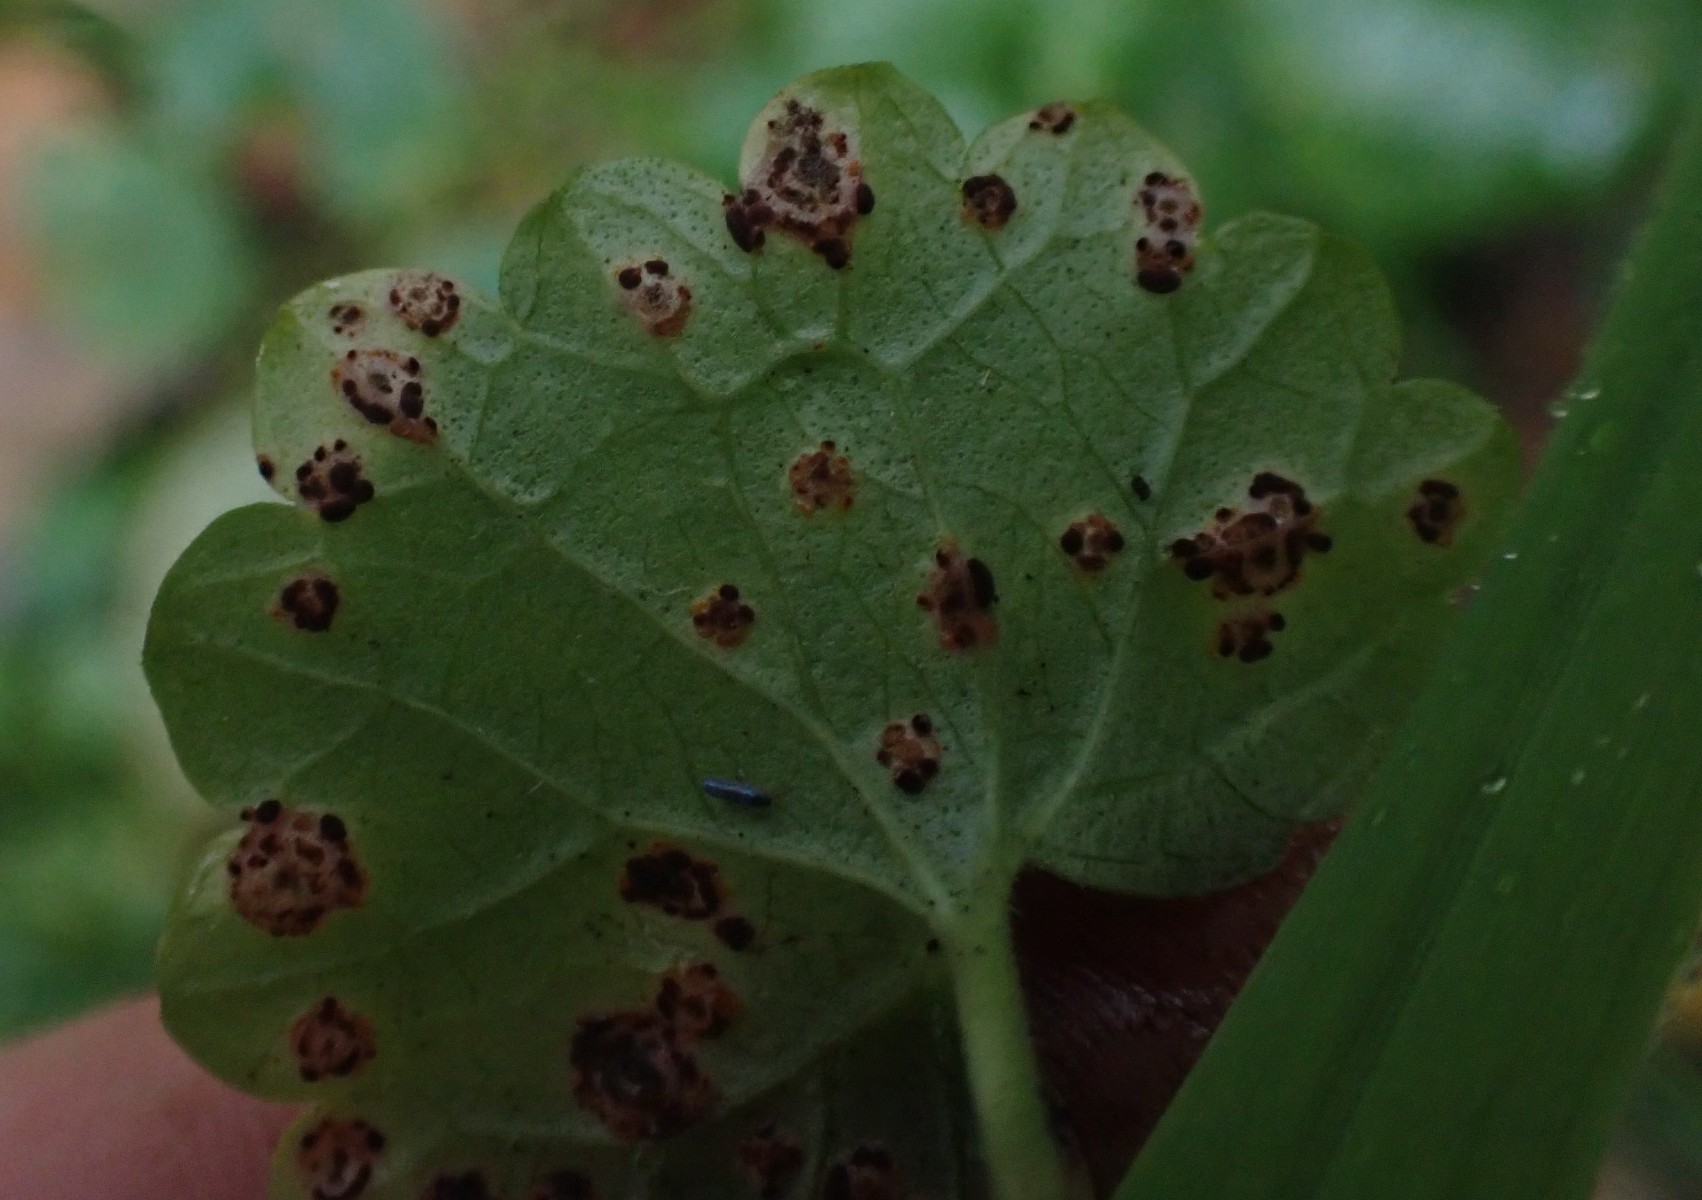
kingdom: Fungi
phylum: Basidiomycota
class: Pucciniomycetes
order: Pucciniales
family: Pucciniaceae
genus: Puccinia
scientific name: Puccinia glechomatis
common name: Ground ivy rust
